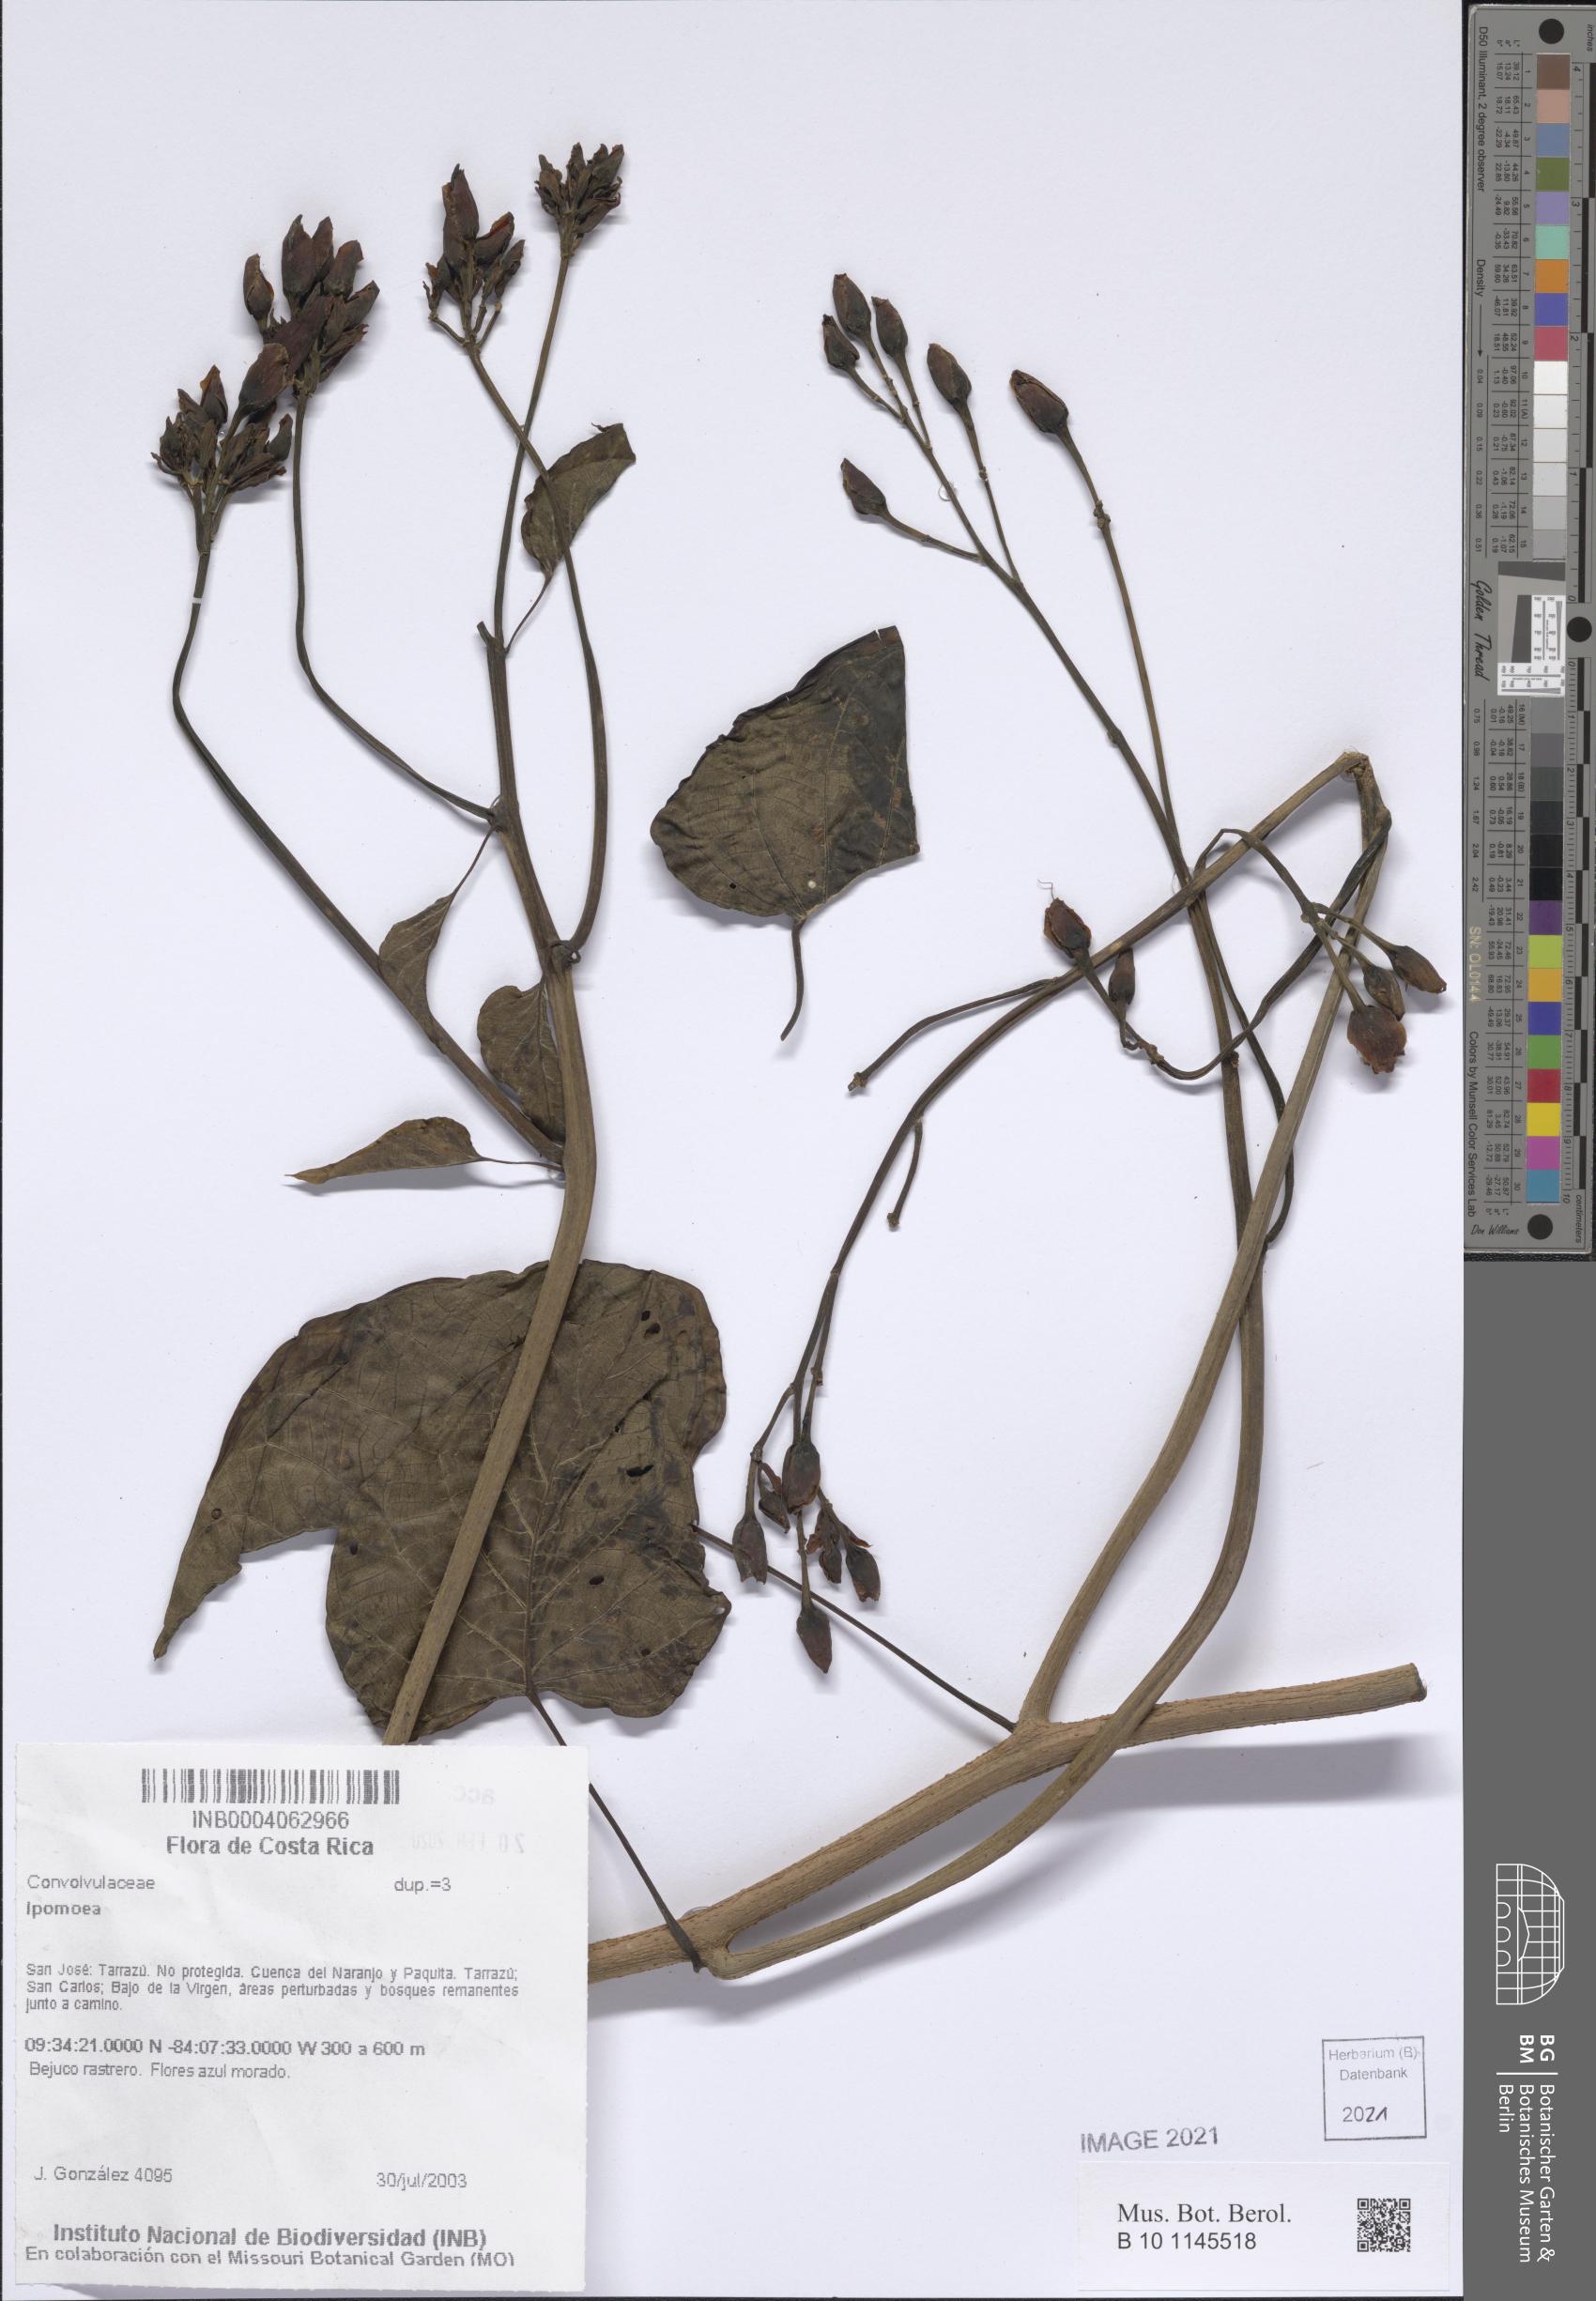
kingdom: Plantae
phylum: Tracheophyta
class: Magnoliopsida
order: Solanales
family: Convolvulaceae
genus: Ipomoea
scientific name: Ipomoea
